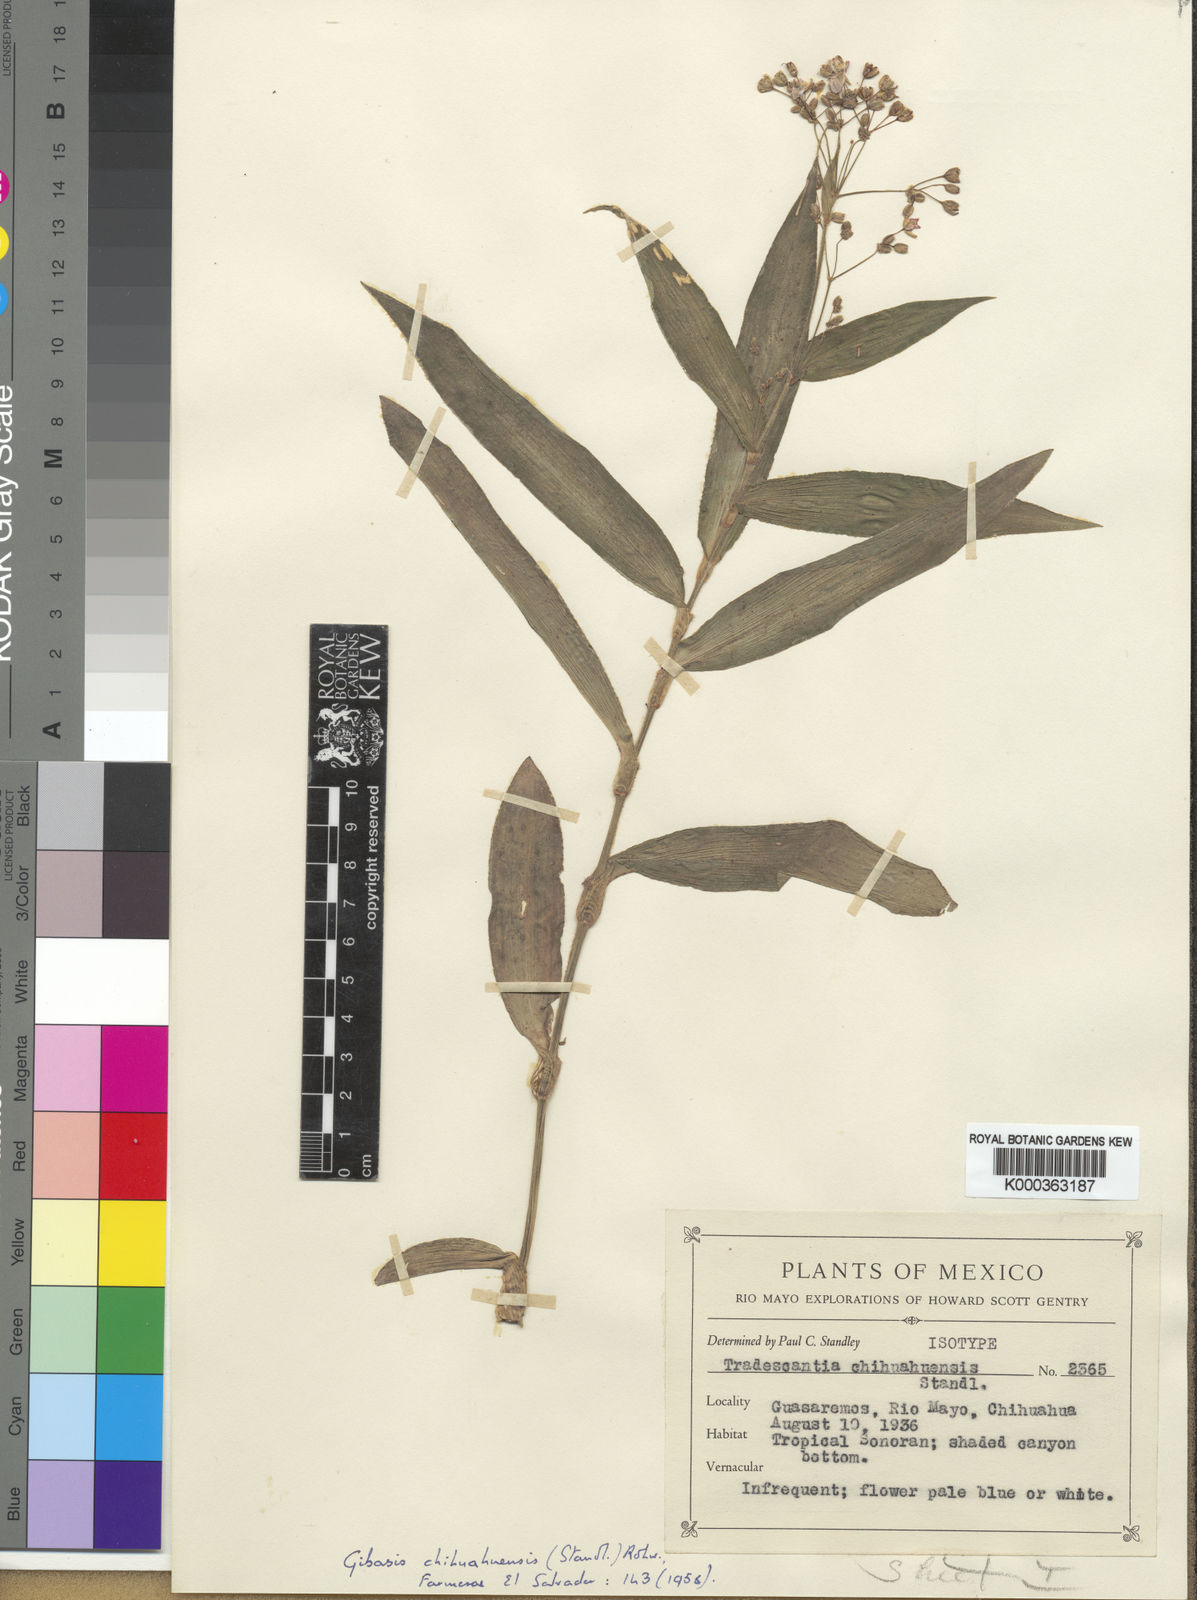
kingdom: Plantae
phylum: Tracheophyta
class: Liliopsida
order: Commelinales
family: Commelinaceae
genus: Gibasis
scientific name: Gibasis chihuahuensis
